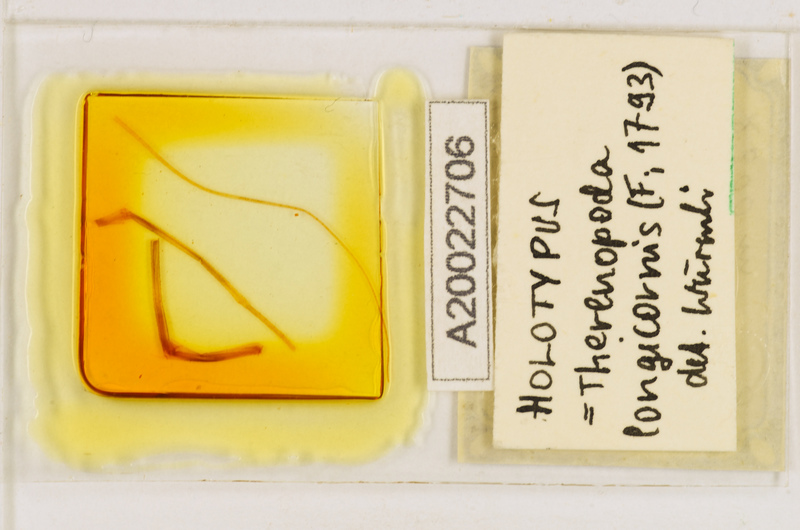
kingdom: Animalia
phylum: Arthropoda
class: Chilopoda
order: Scutigeromorpha
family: Scutigeridae
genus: Thereuopoda
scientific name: Thereuopoda longicornis
